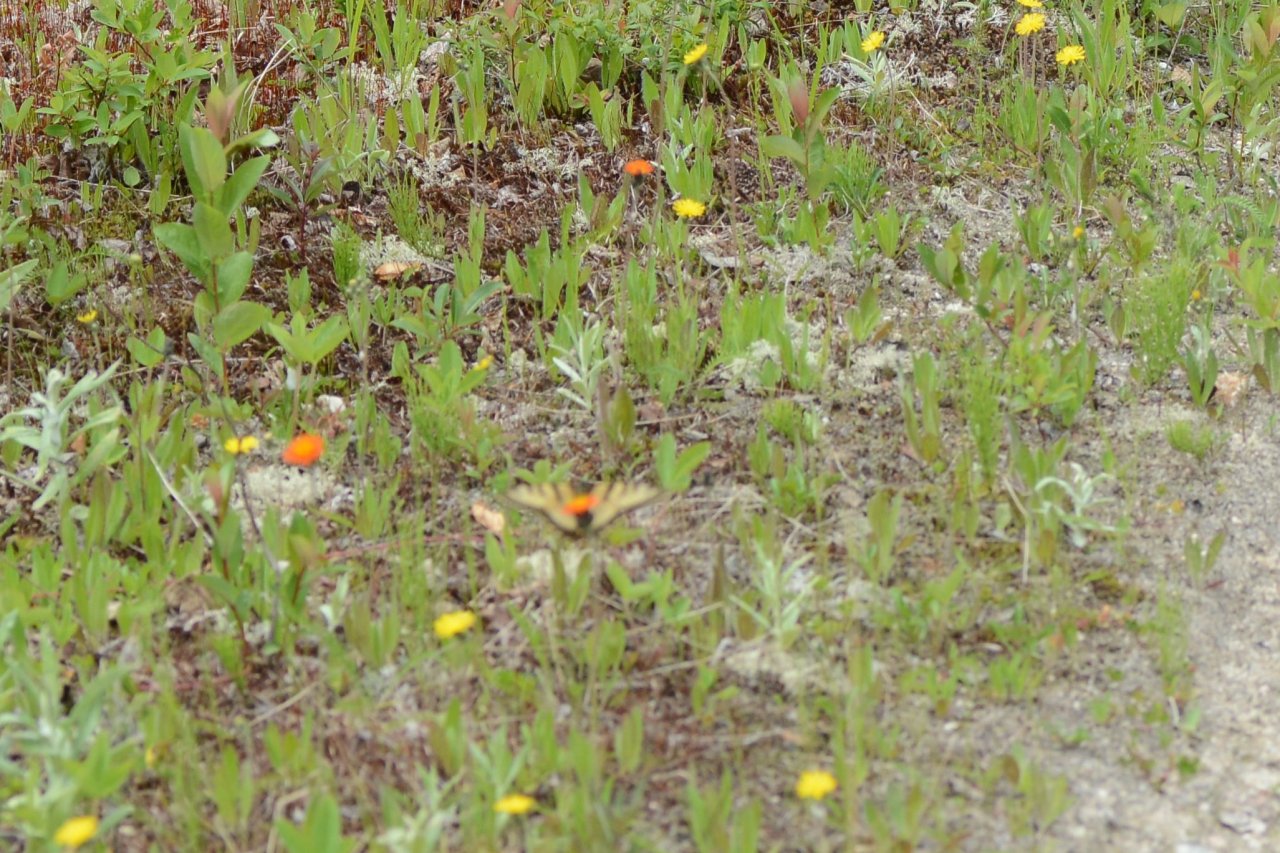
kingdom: Animalia
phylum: Arthropoda
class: Insecta
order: Lepidoptera
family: Papilionidae
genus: Pterourus
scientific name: Pterourus canadensis
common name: Canadian Tiger Swallowtail
